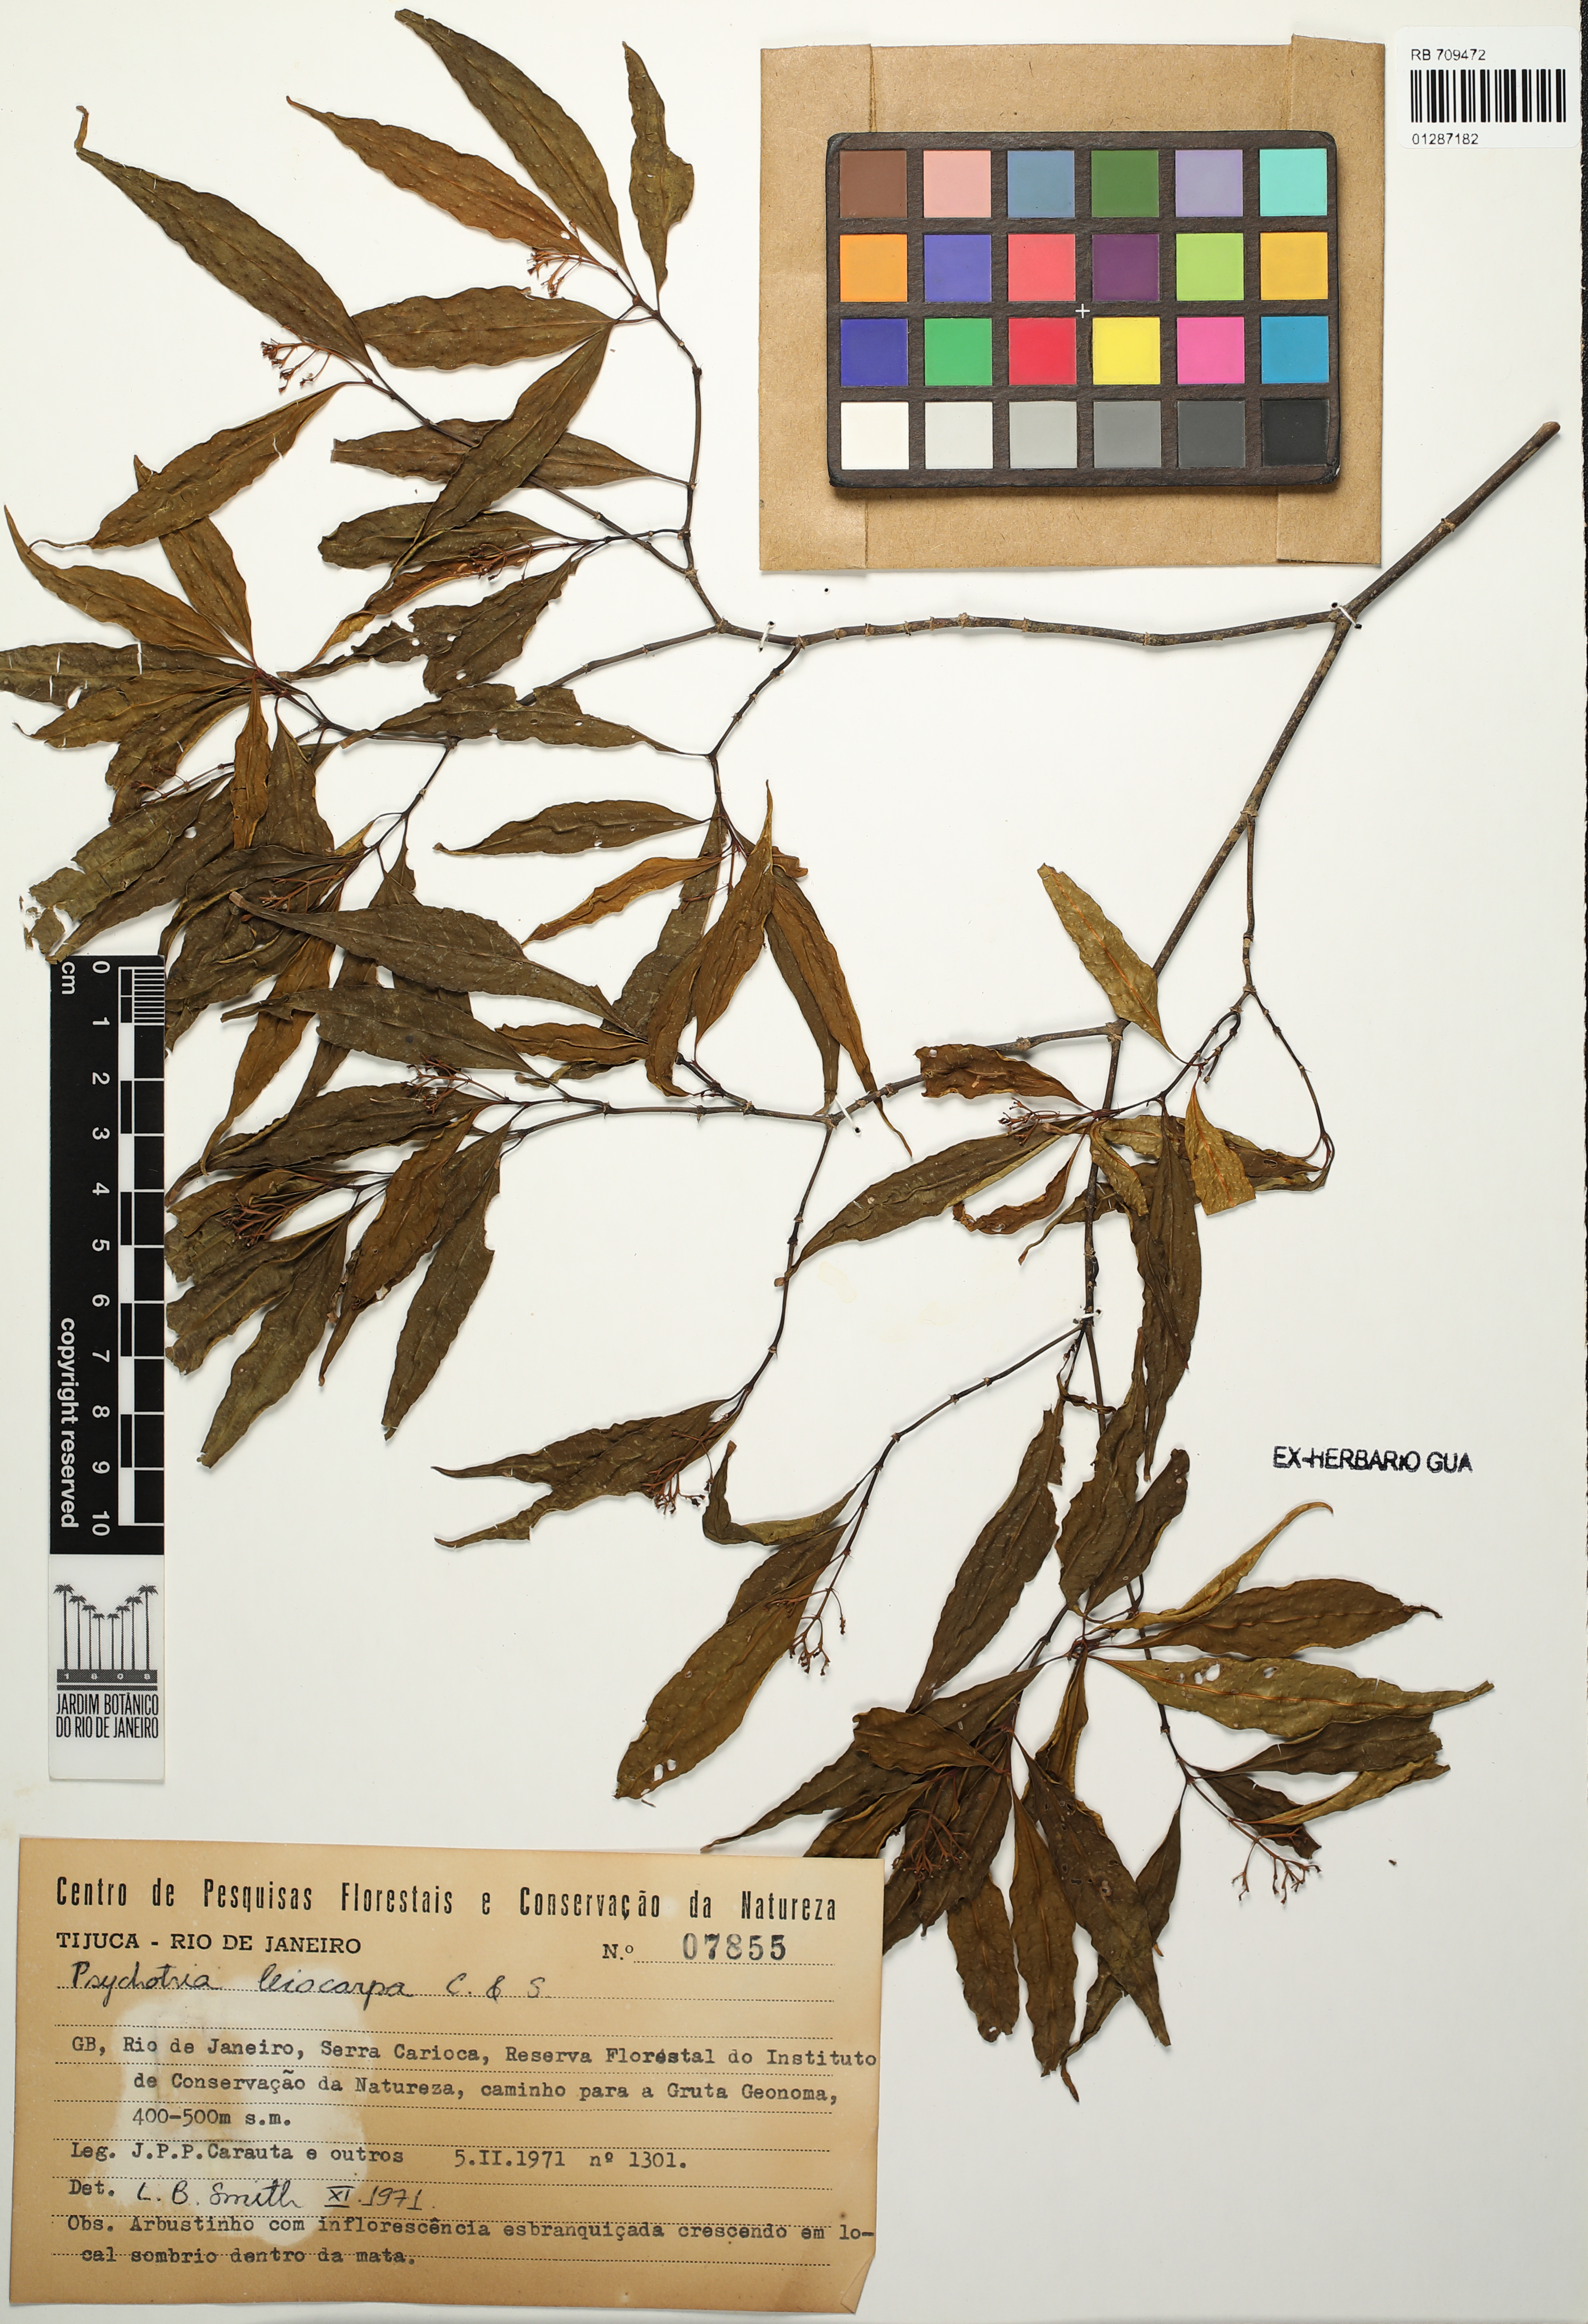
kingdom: Plantae
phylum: Tracheophyta
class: Magnoliopsida
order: Gentianales
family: Rubiaceae
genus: Psychotria
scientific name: Psychotria leiocarpa
